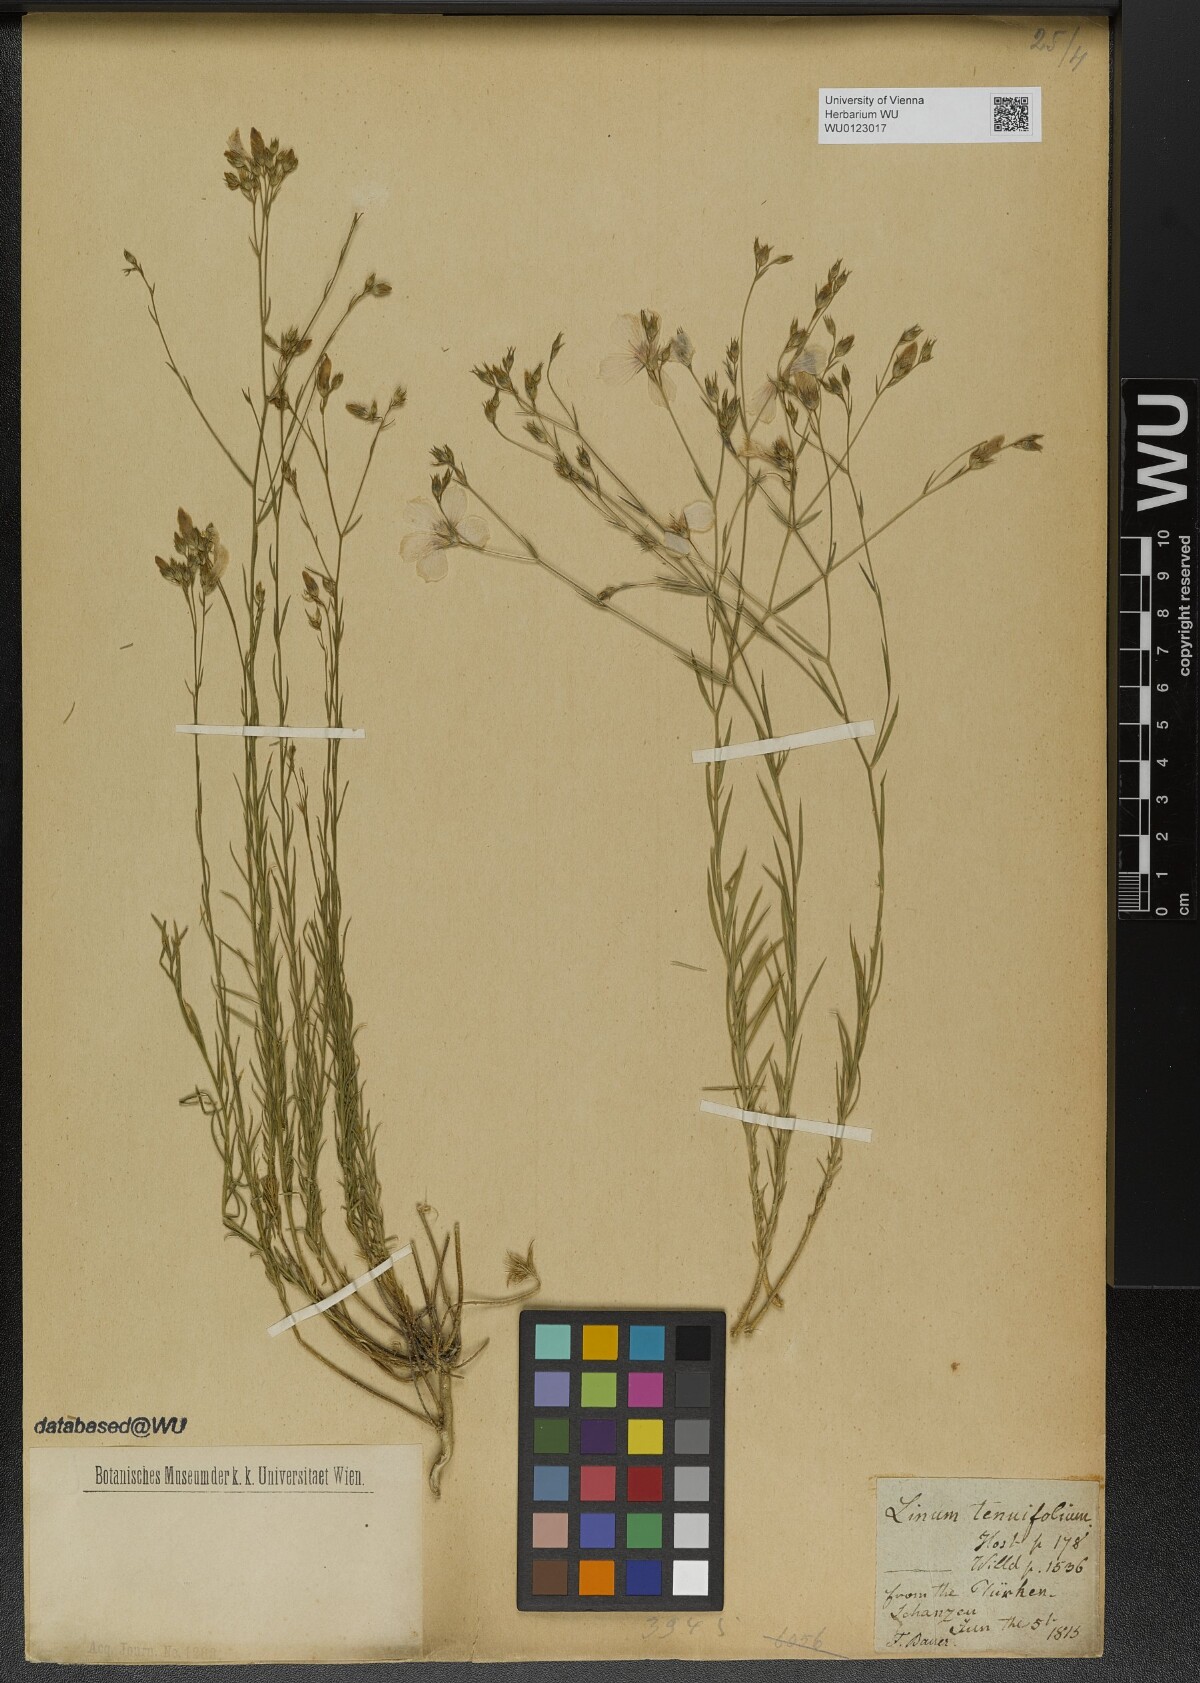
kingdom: Plantae
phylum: Tracheophyta
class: Magnoliopsida
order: Malpighiales
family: Linaceae
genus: Linum
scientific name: Linum tenuifolium
